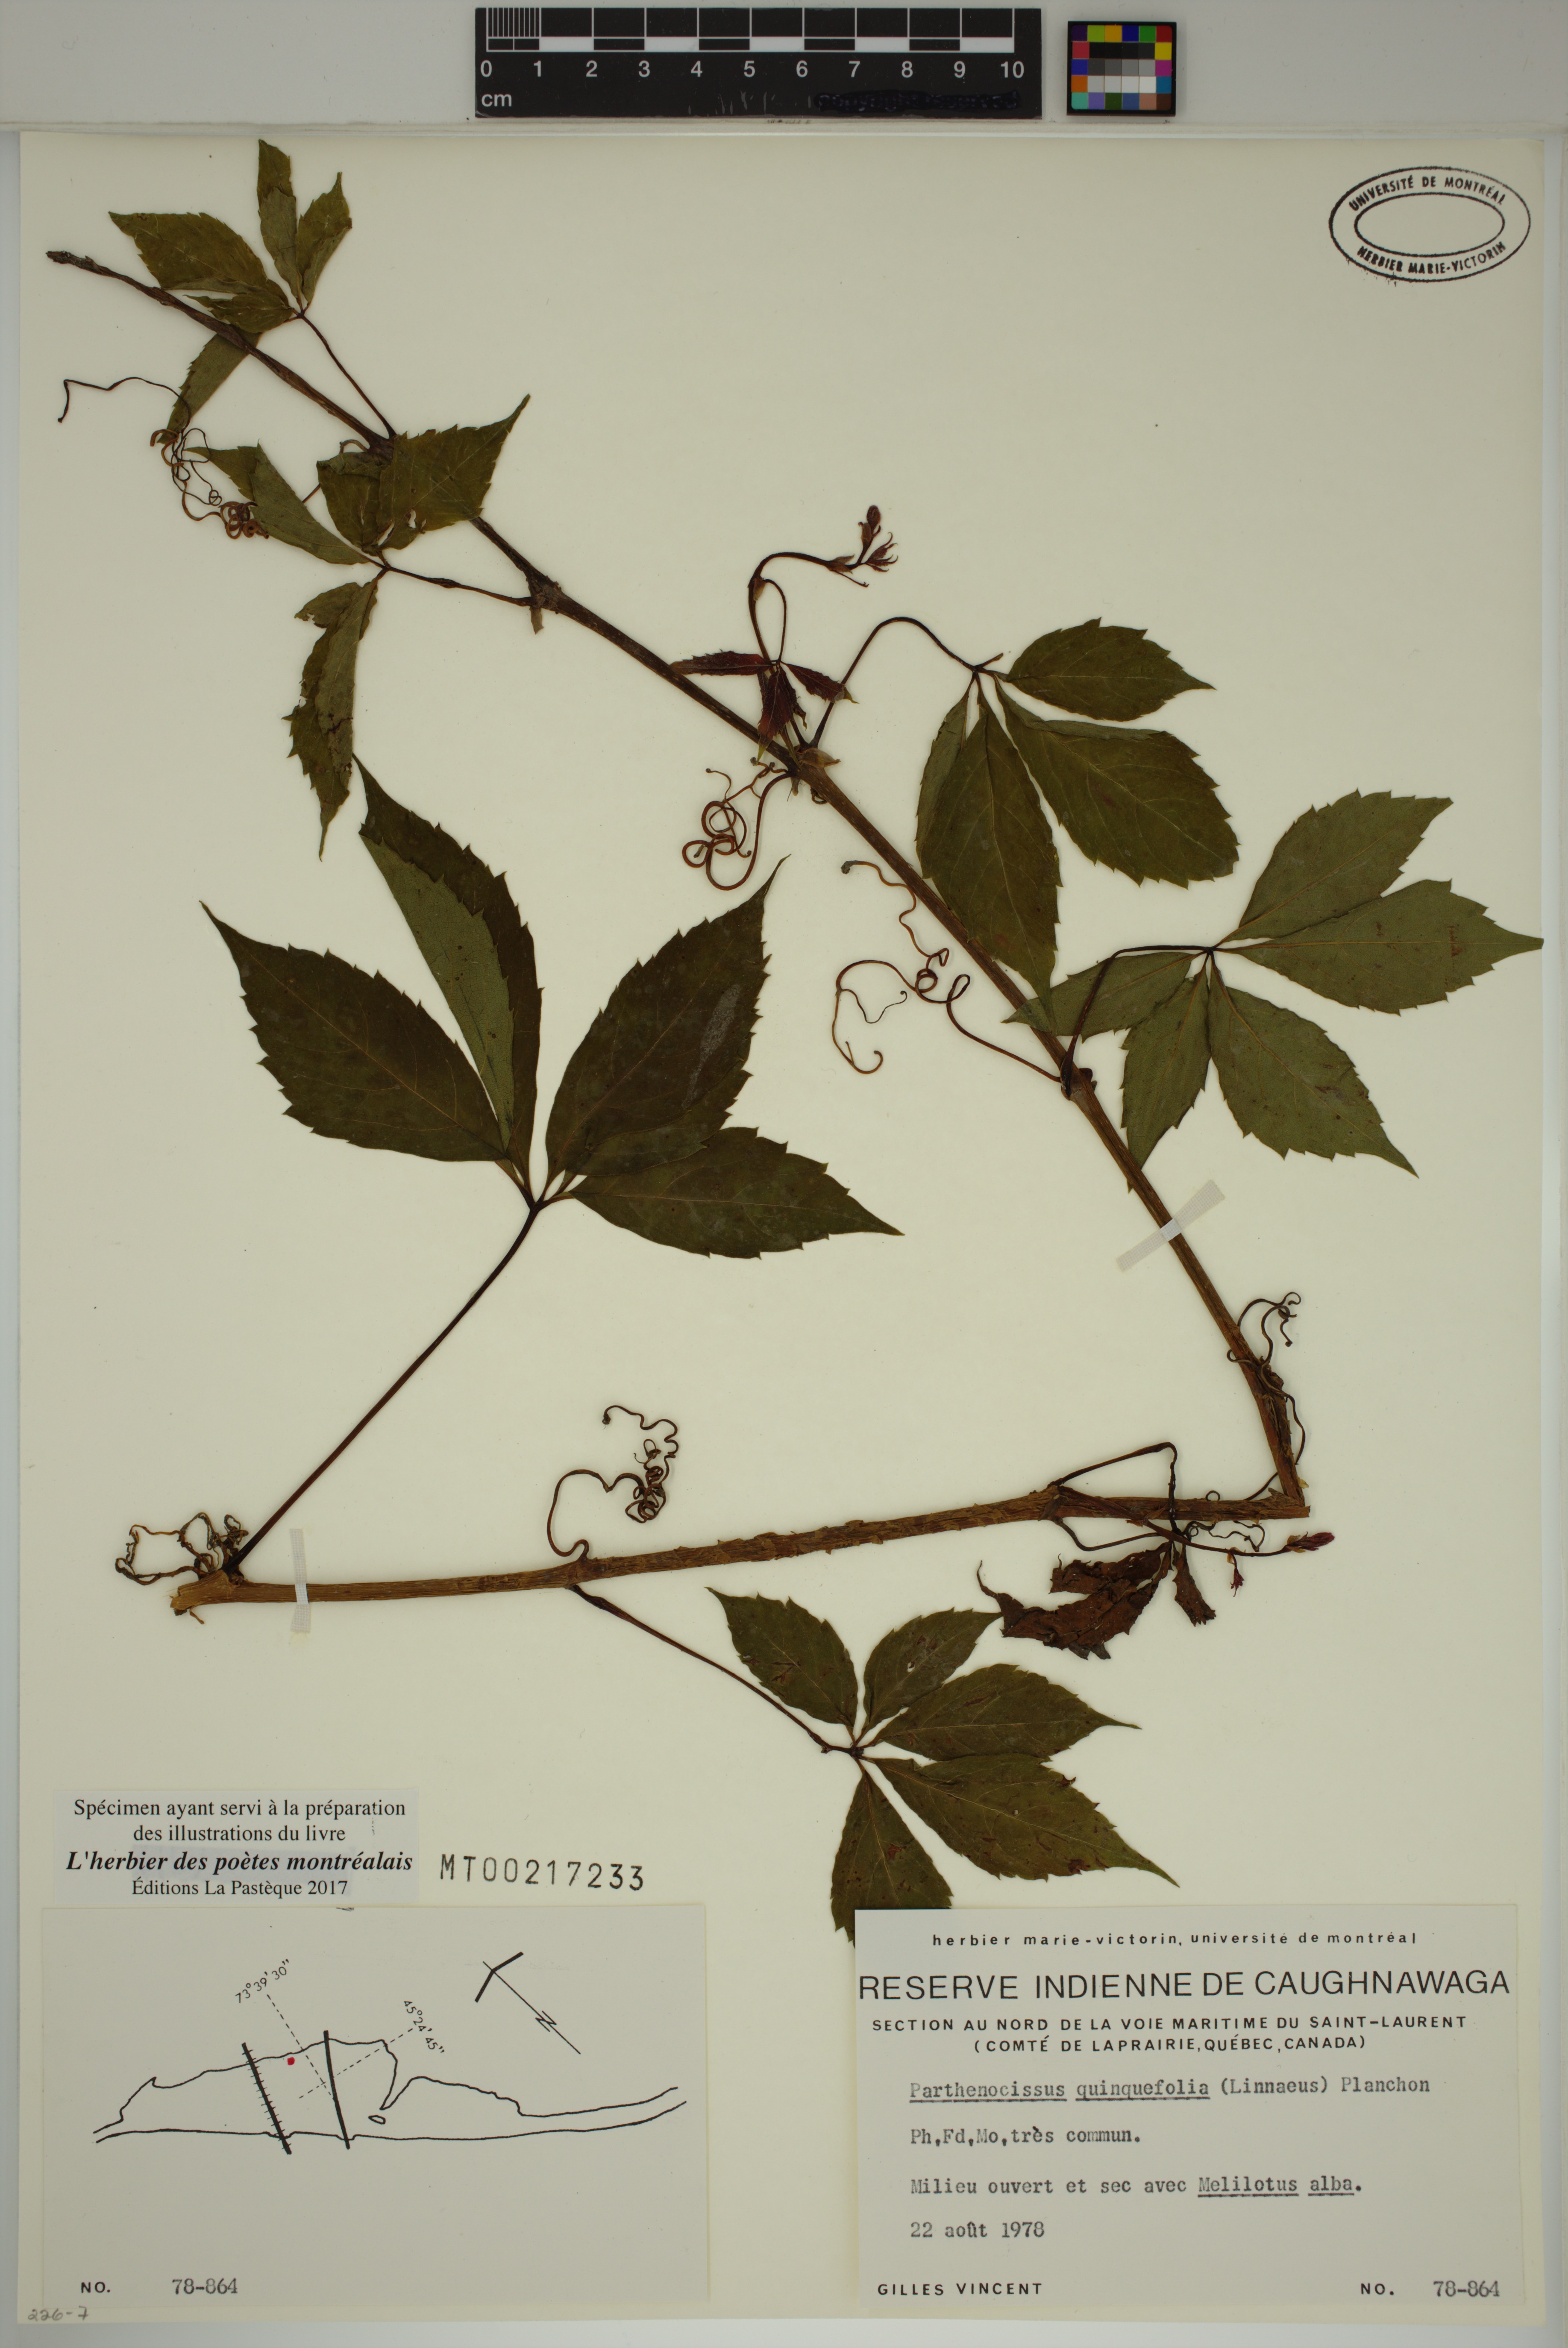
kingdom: Plantae
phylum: Tracheophyta
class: Magnoliopsida
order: Vitales
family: Vitaceae
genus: Parthenocissus
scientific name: Parthenocissus quinquefolia
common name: Virginia-creeper
